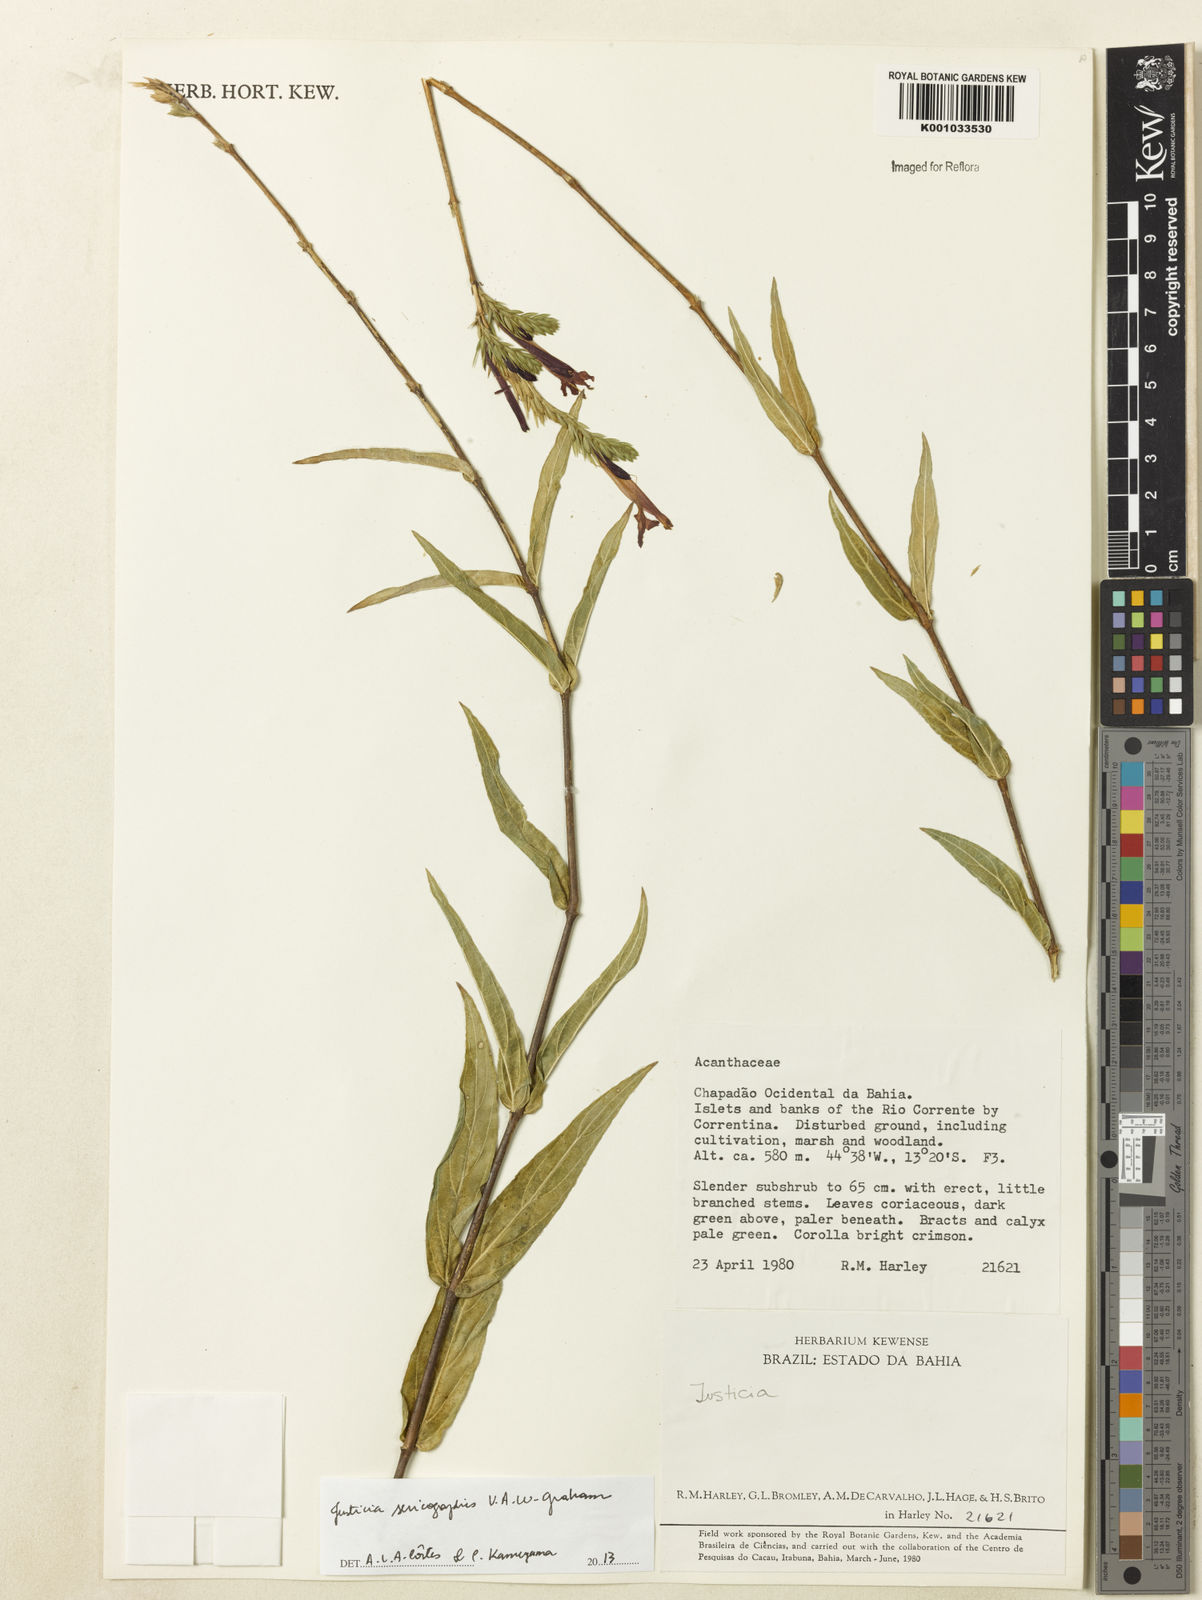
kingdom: Plantae
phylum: Tracheophyta
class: Magnoliopsida
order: Lamiales
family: Acanthaceae
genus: Dianthera
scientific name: Dianthera rigida
